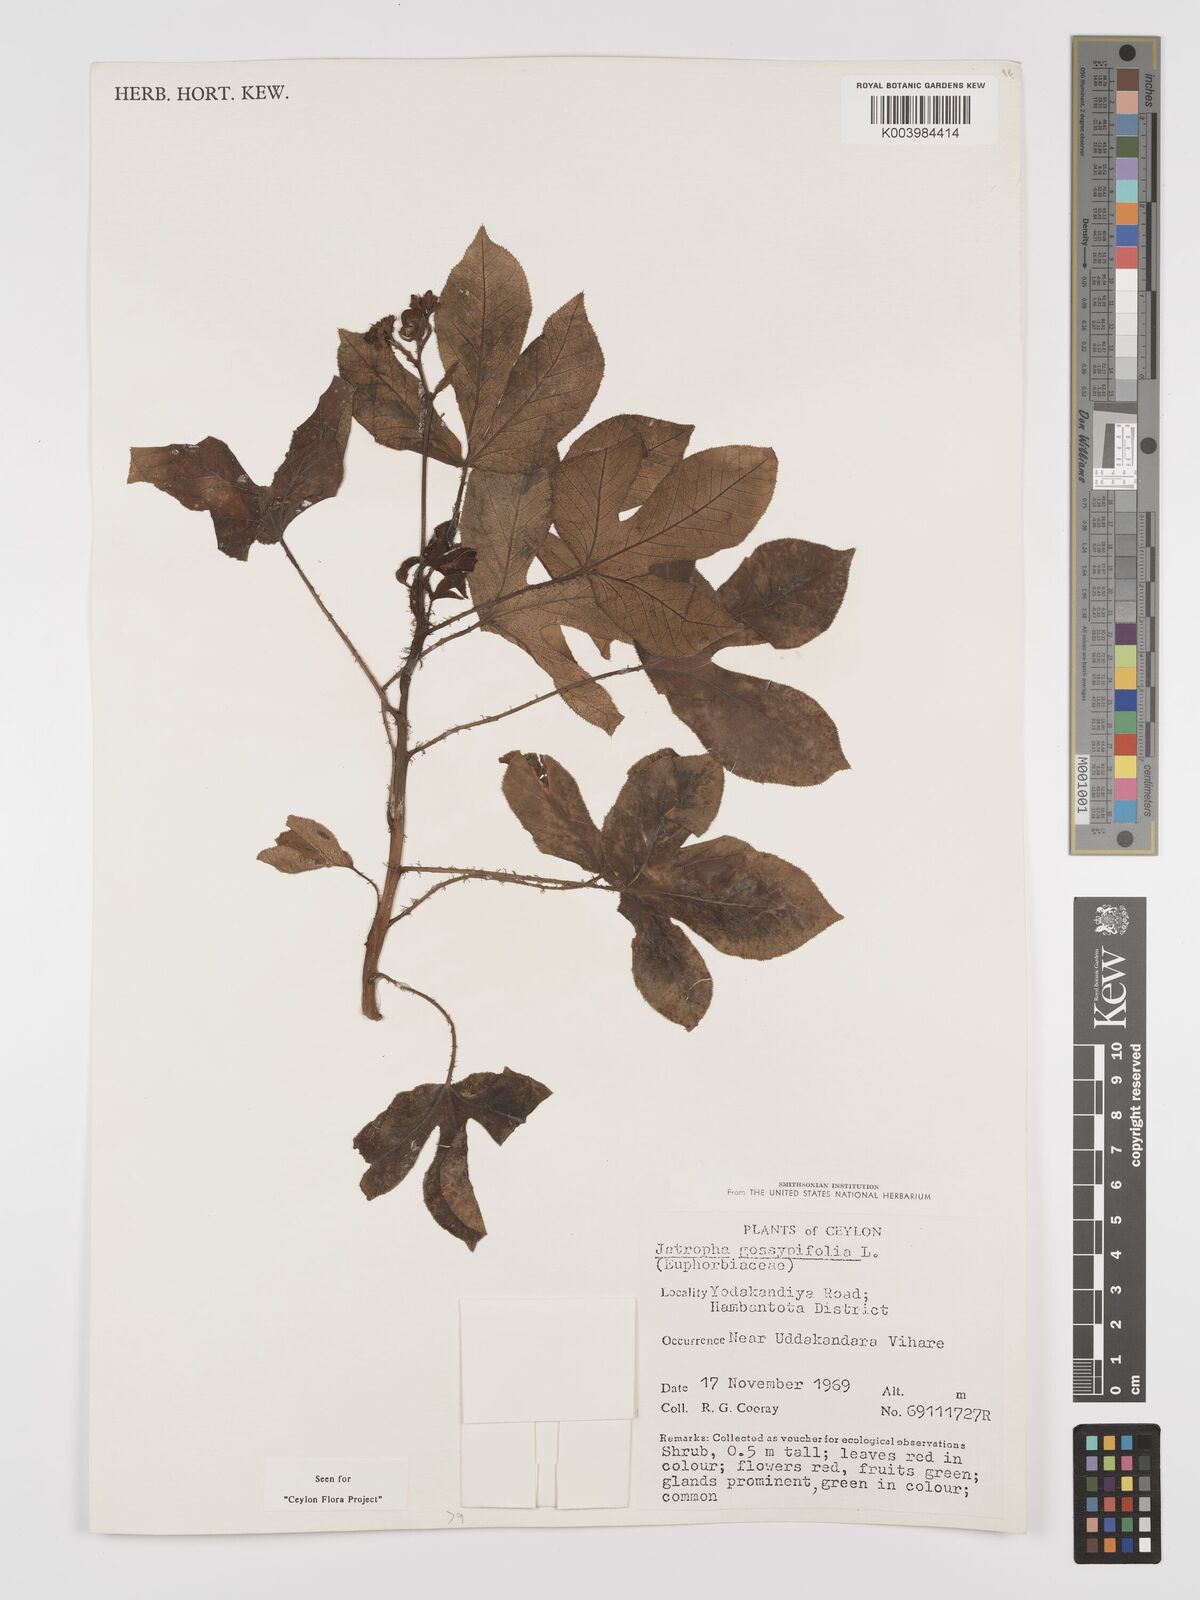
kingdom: Plantae
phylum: Tracheophyta
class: Magnoliopsida
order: Malpighiales
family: Euphorbiaceae
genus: Jatropha
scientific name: Jatropha gossypiifolia
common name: Bellyache bush
